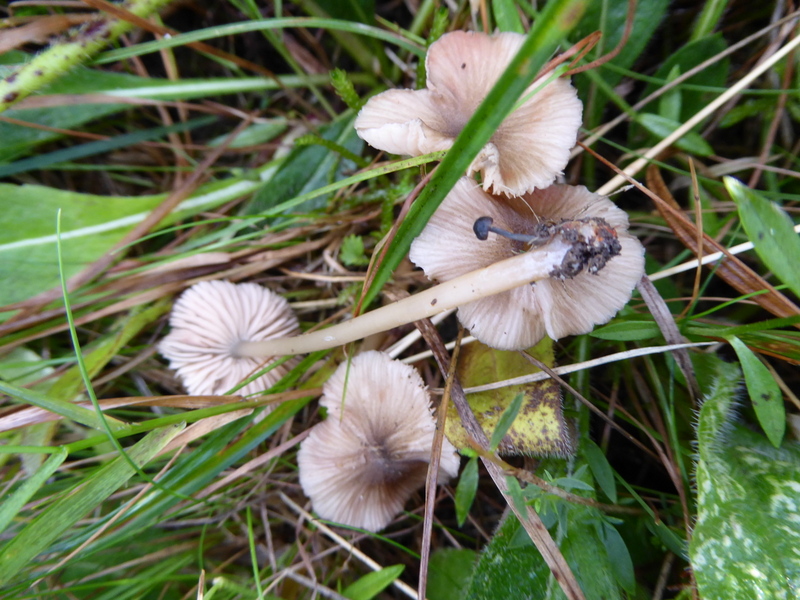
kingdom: Fungi
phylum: Basidiomycota
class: Agaricomycetes
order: Agaricales
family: Entolomataceae
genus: Entoloma
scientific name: Entoloma exile
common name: rødplettet rødblad
